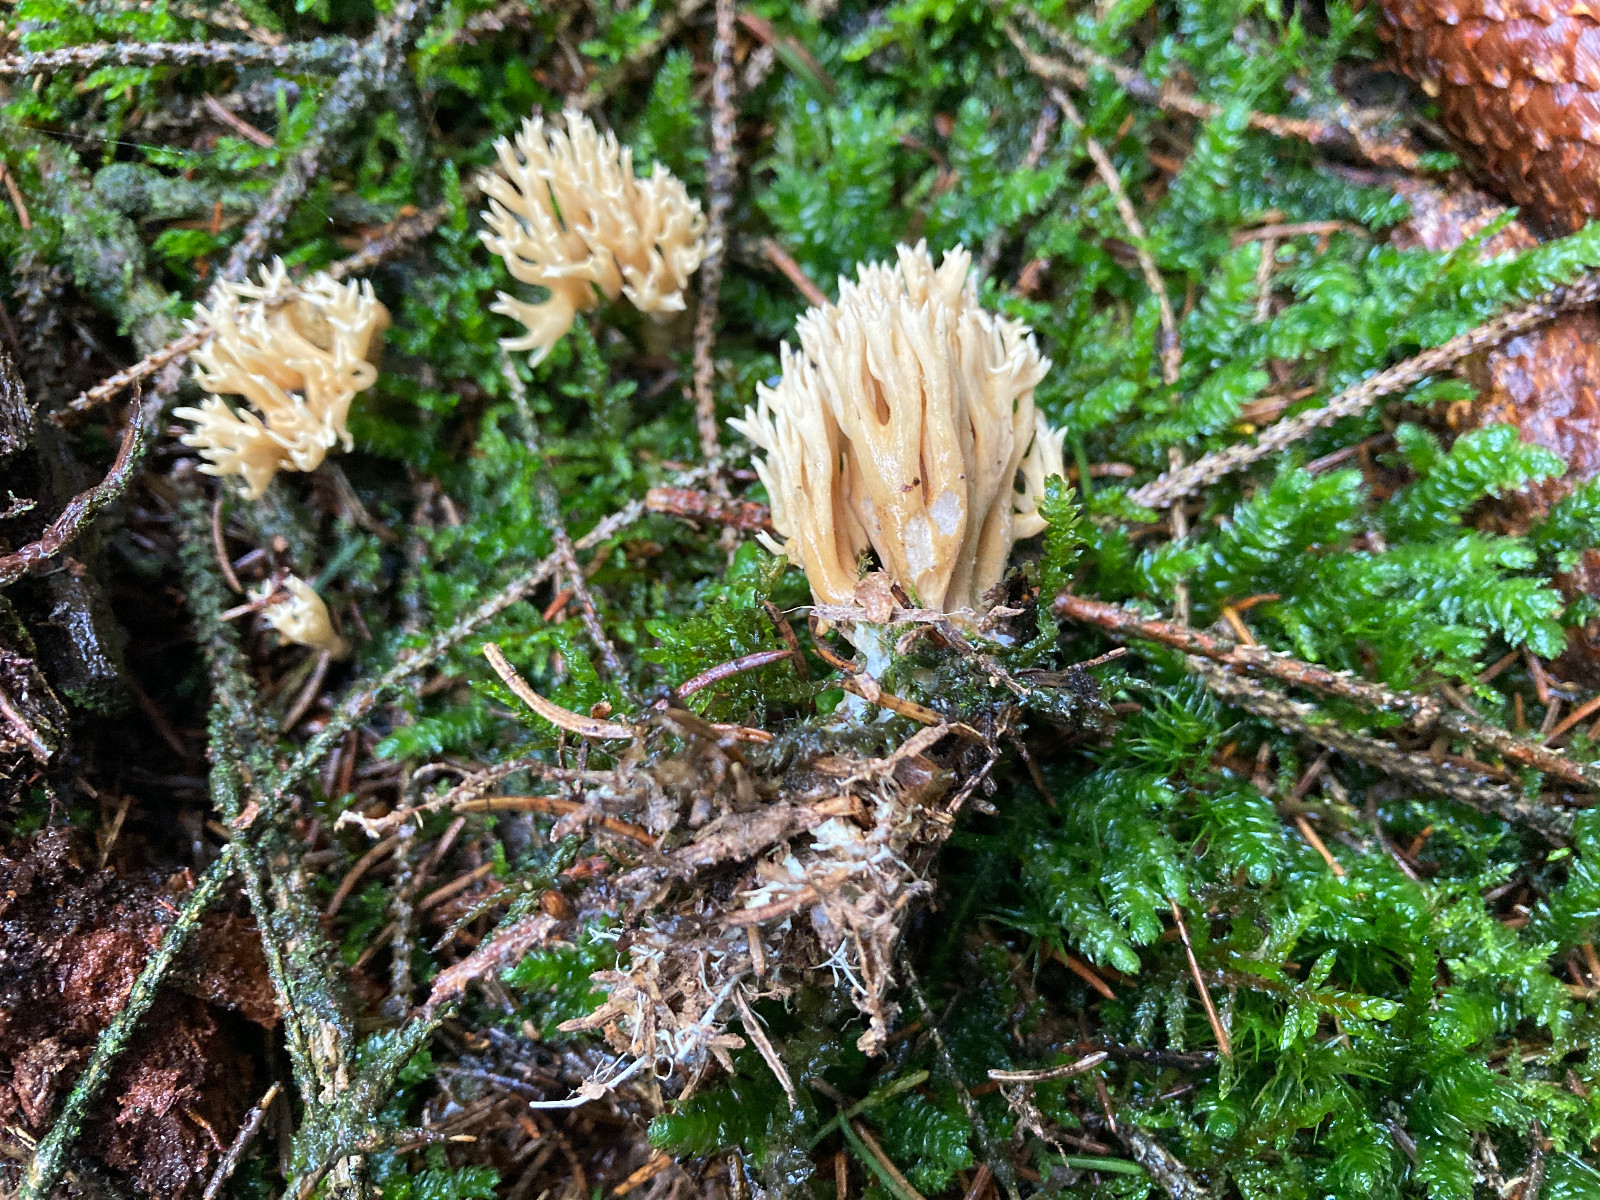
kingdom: Fungi
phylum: Basidiomycota
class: Agaricomycetes
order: Gomphales
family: Gomphaceae
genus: Phaeoclavulina
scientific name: Phaeoclavulina eumorpha
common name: gran-koralsvamp
